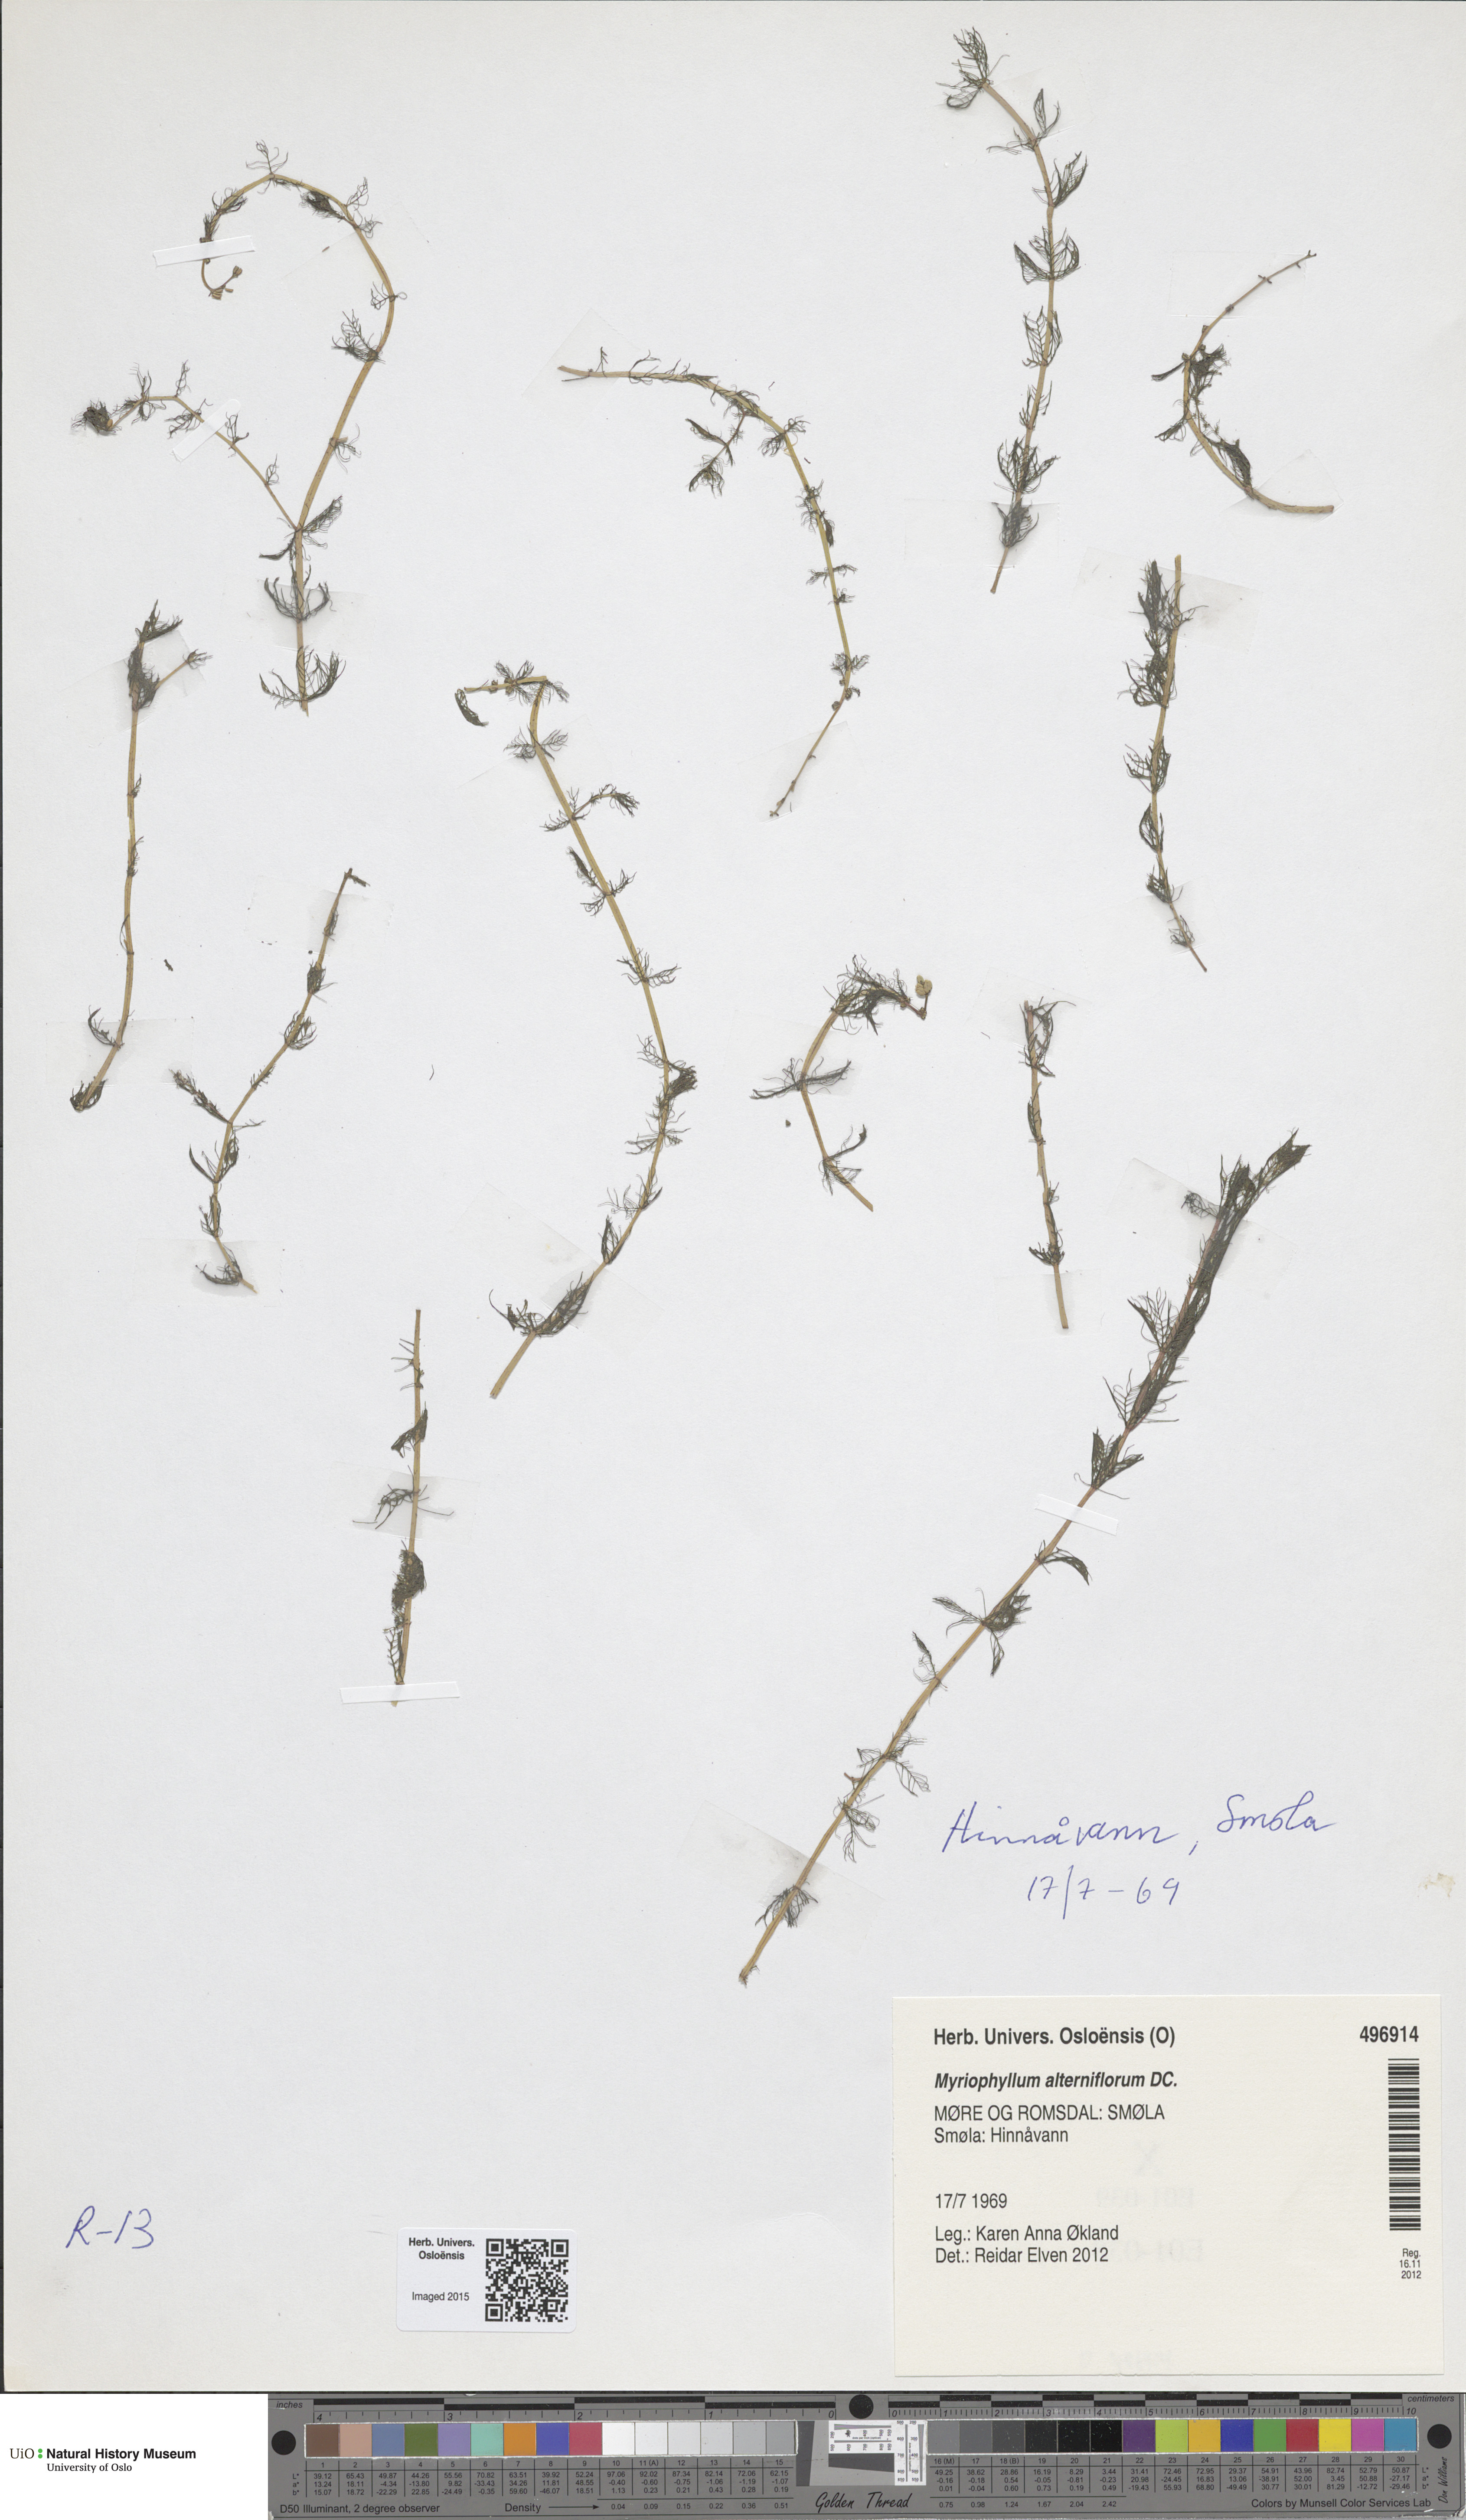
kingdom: Plantae
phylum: Tracheophyta
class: Magnoliopsida
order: Saxifragales
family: Haloragaceae
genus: Myriophyllum
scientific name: Myriophyllum alterniflorum
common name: Alternate water-milfoil
